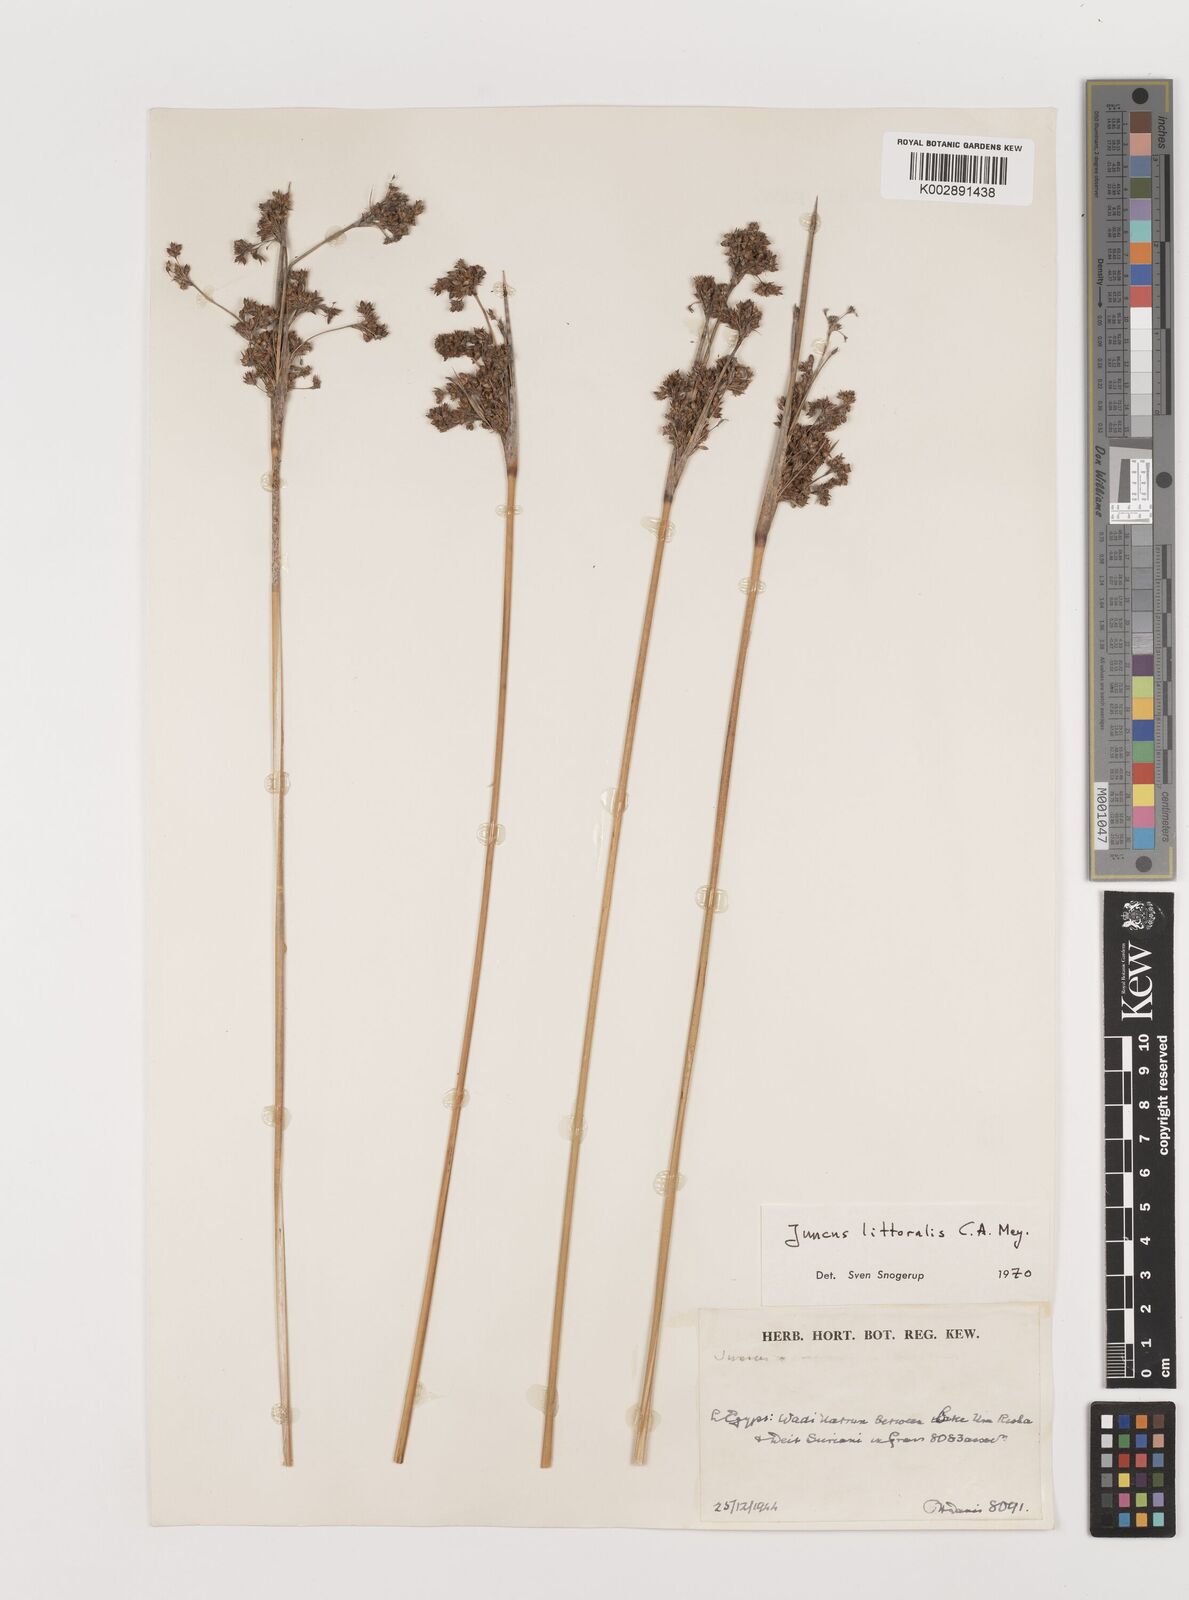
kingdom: Plantae
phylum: Tracheophyta
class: Liliopsida
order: Poales
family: Juncaceae
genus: Juncus
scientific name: Juncus littoralis
